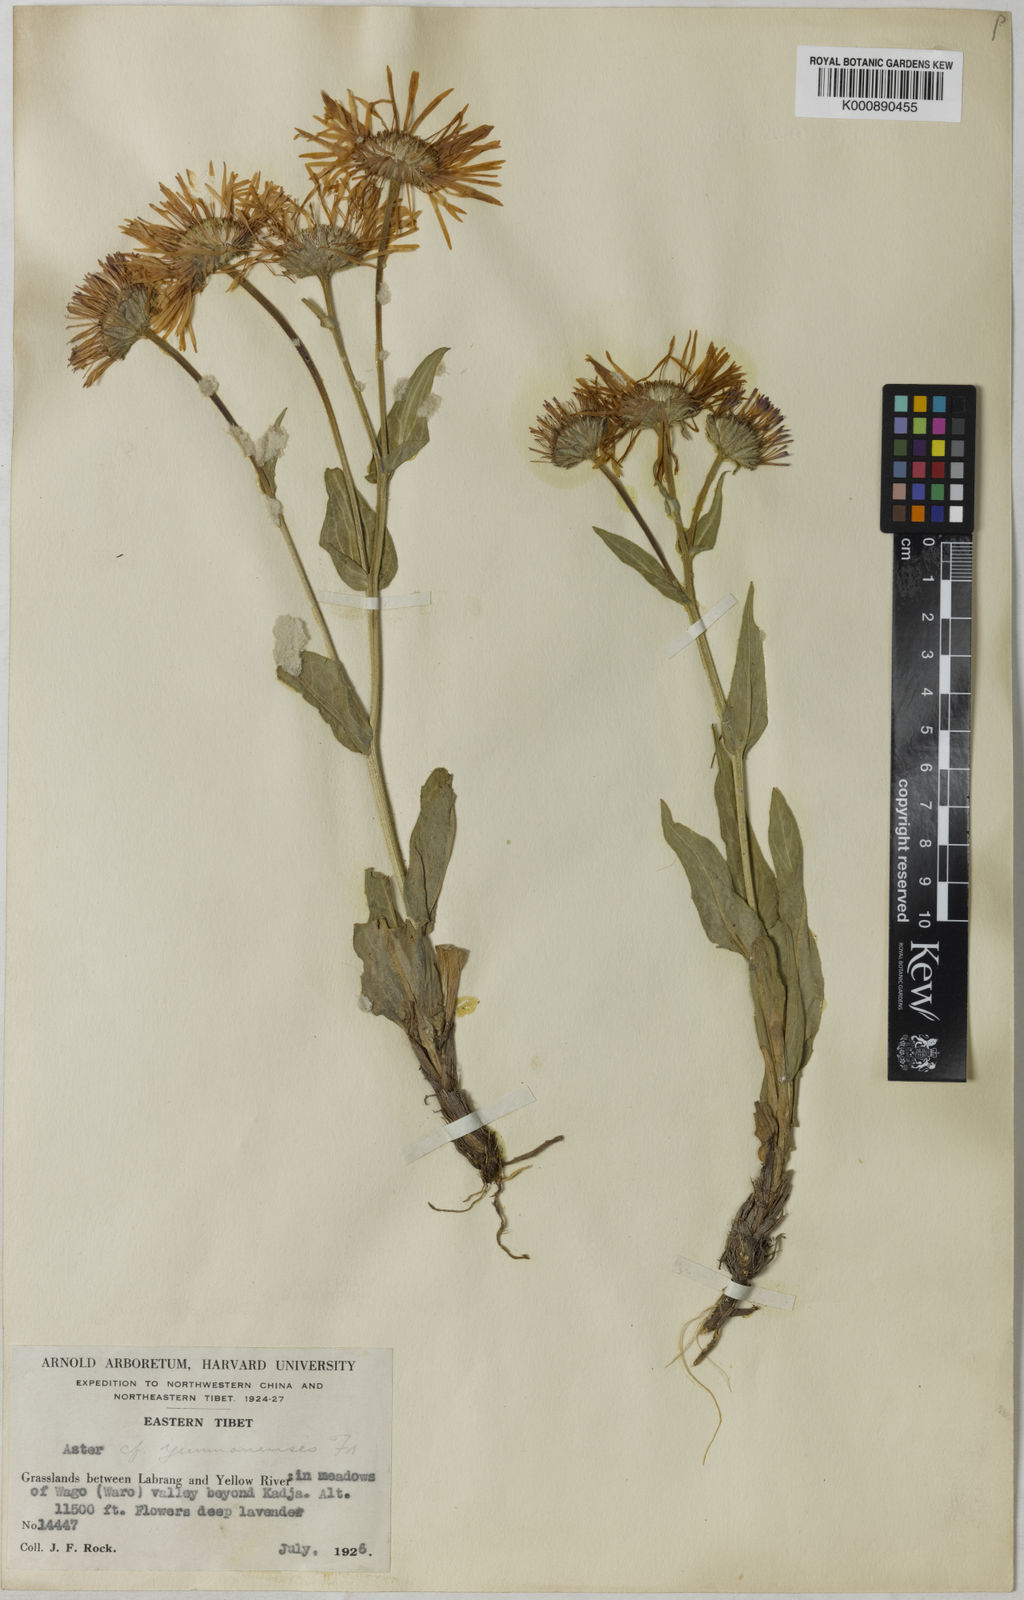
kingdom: Plantae
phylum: Tracheophyta
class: Magnoliopsida
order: Asterales
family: Asteraceae
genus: Tibetiodes
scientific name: Tibetiodes angustior
